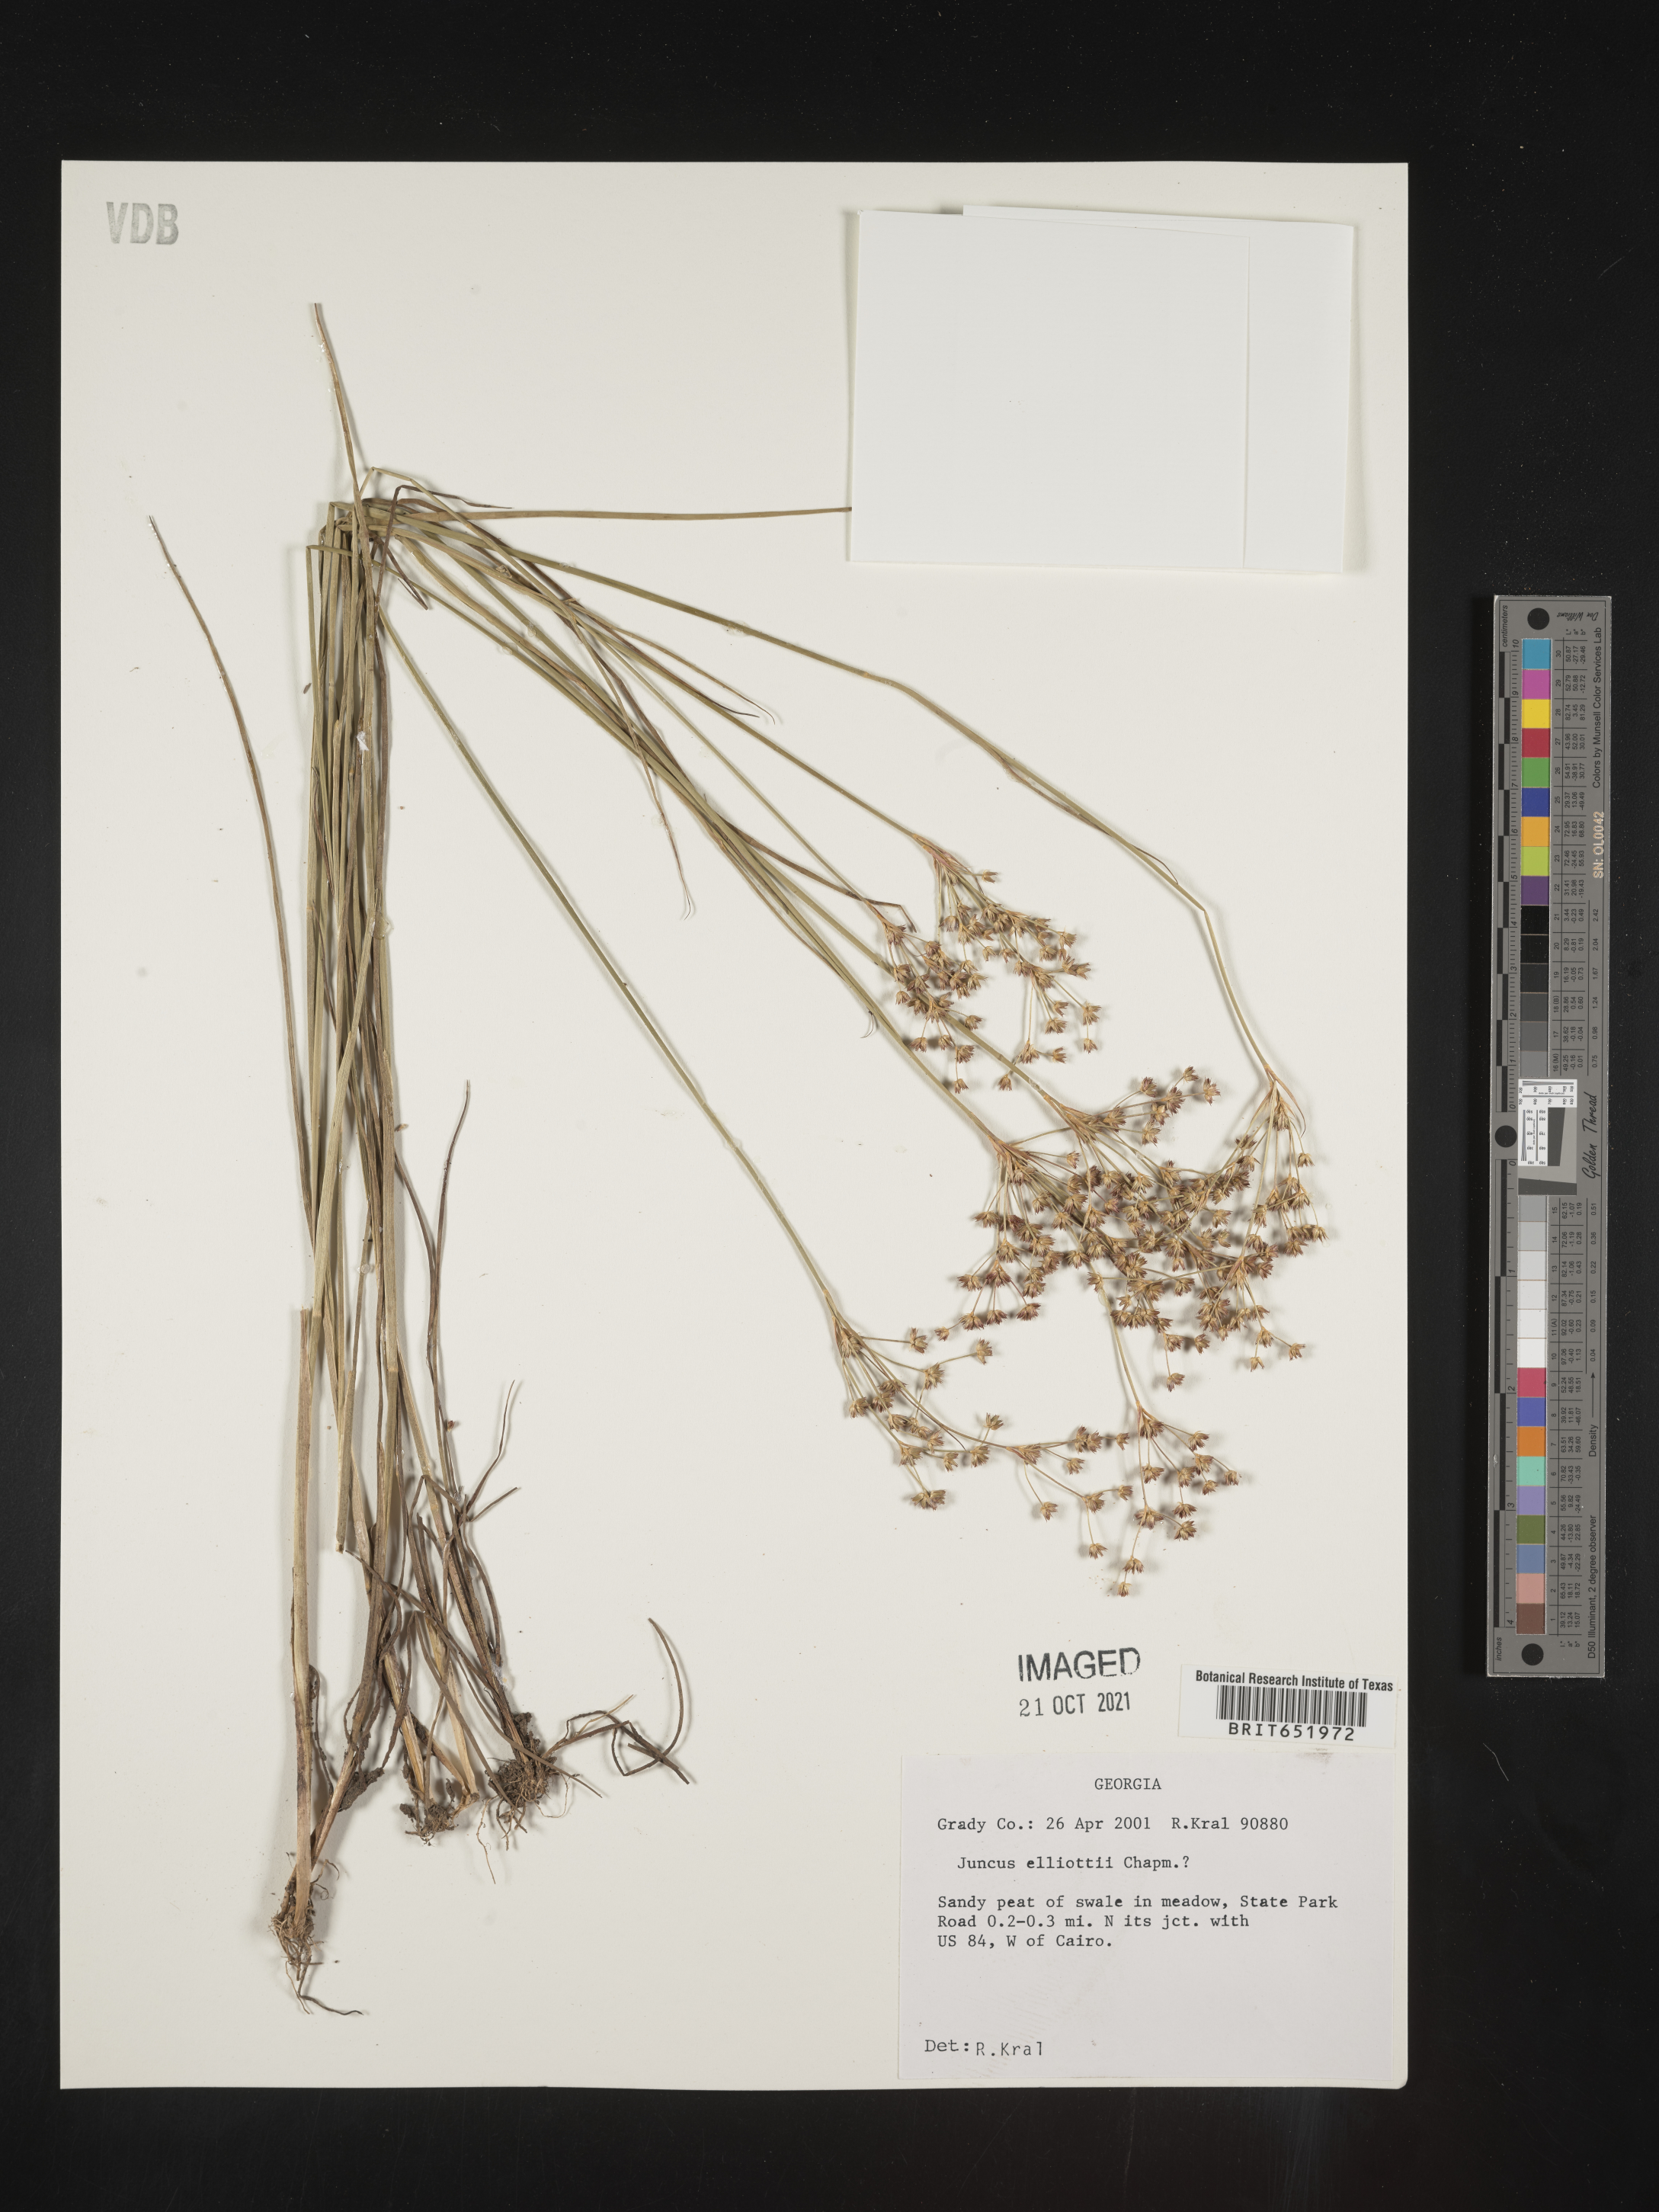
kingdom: Plantae
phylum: Tracheophyta
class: Liliopsida
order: Poales
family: Juncaceae
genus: Juncus
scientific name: Juncus elliottii
